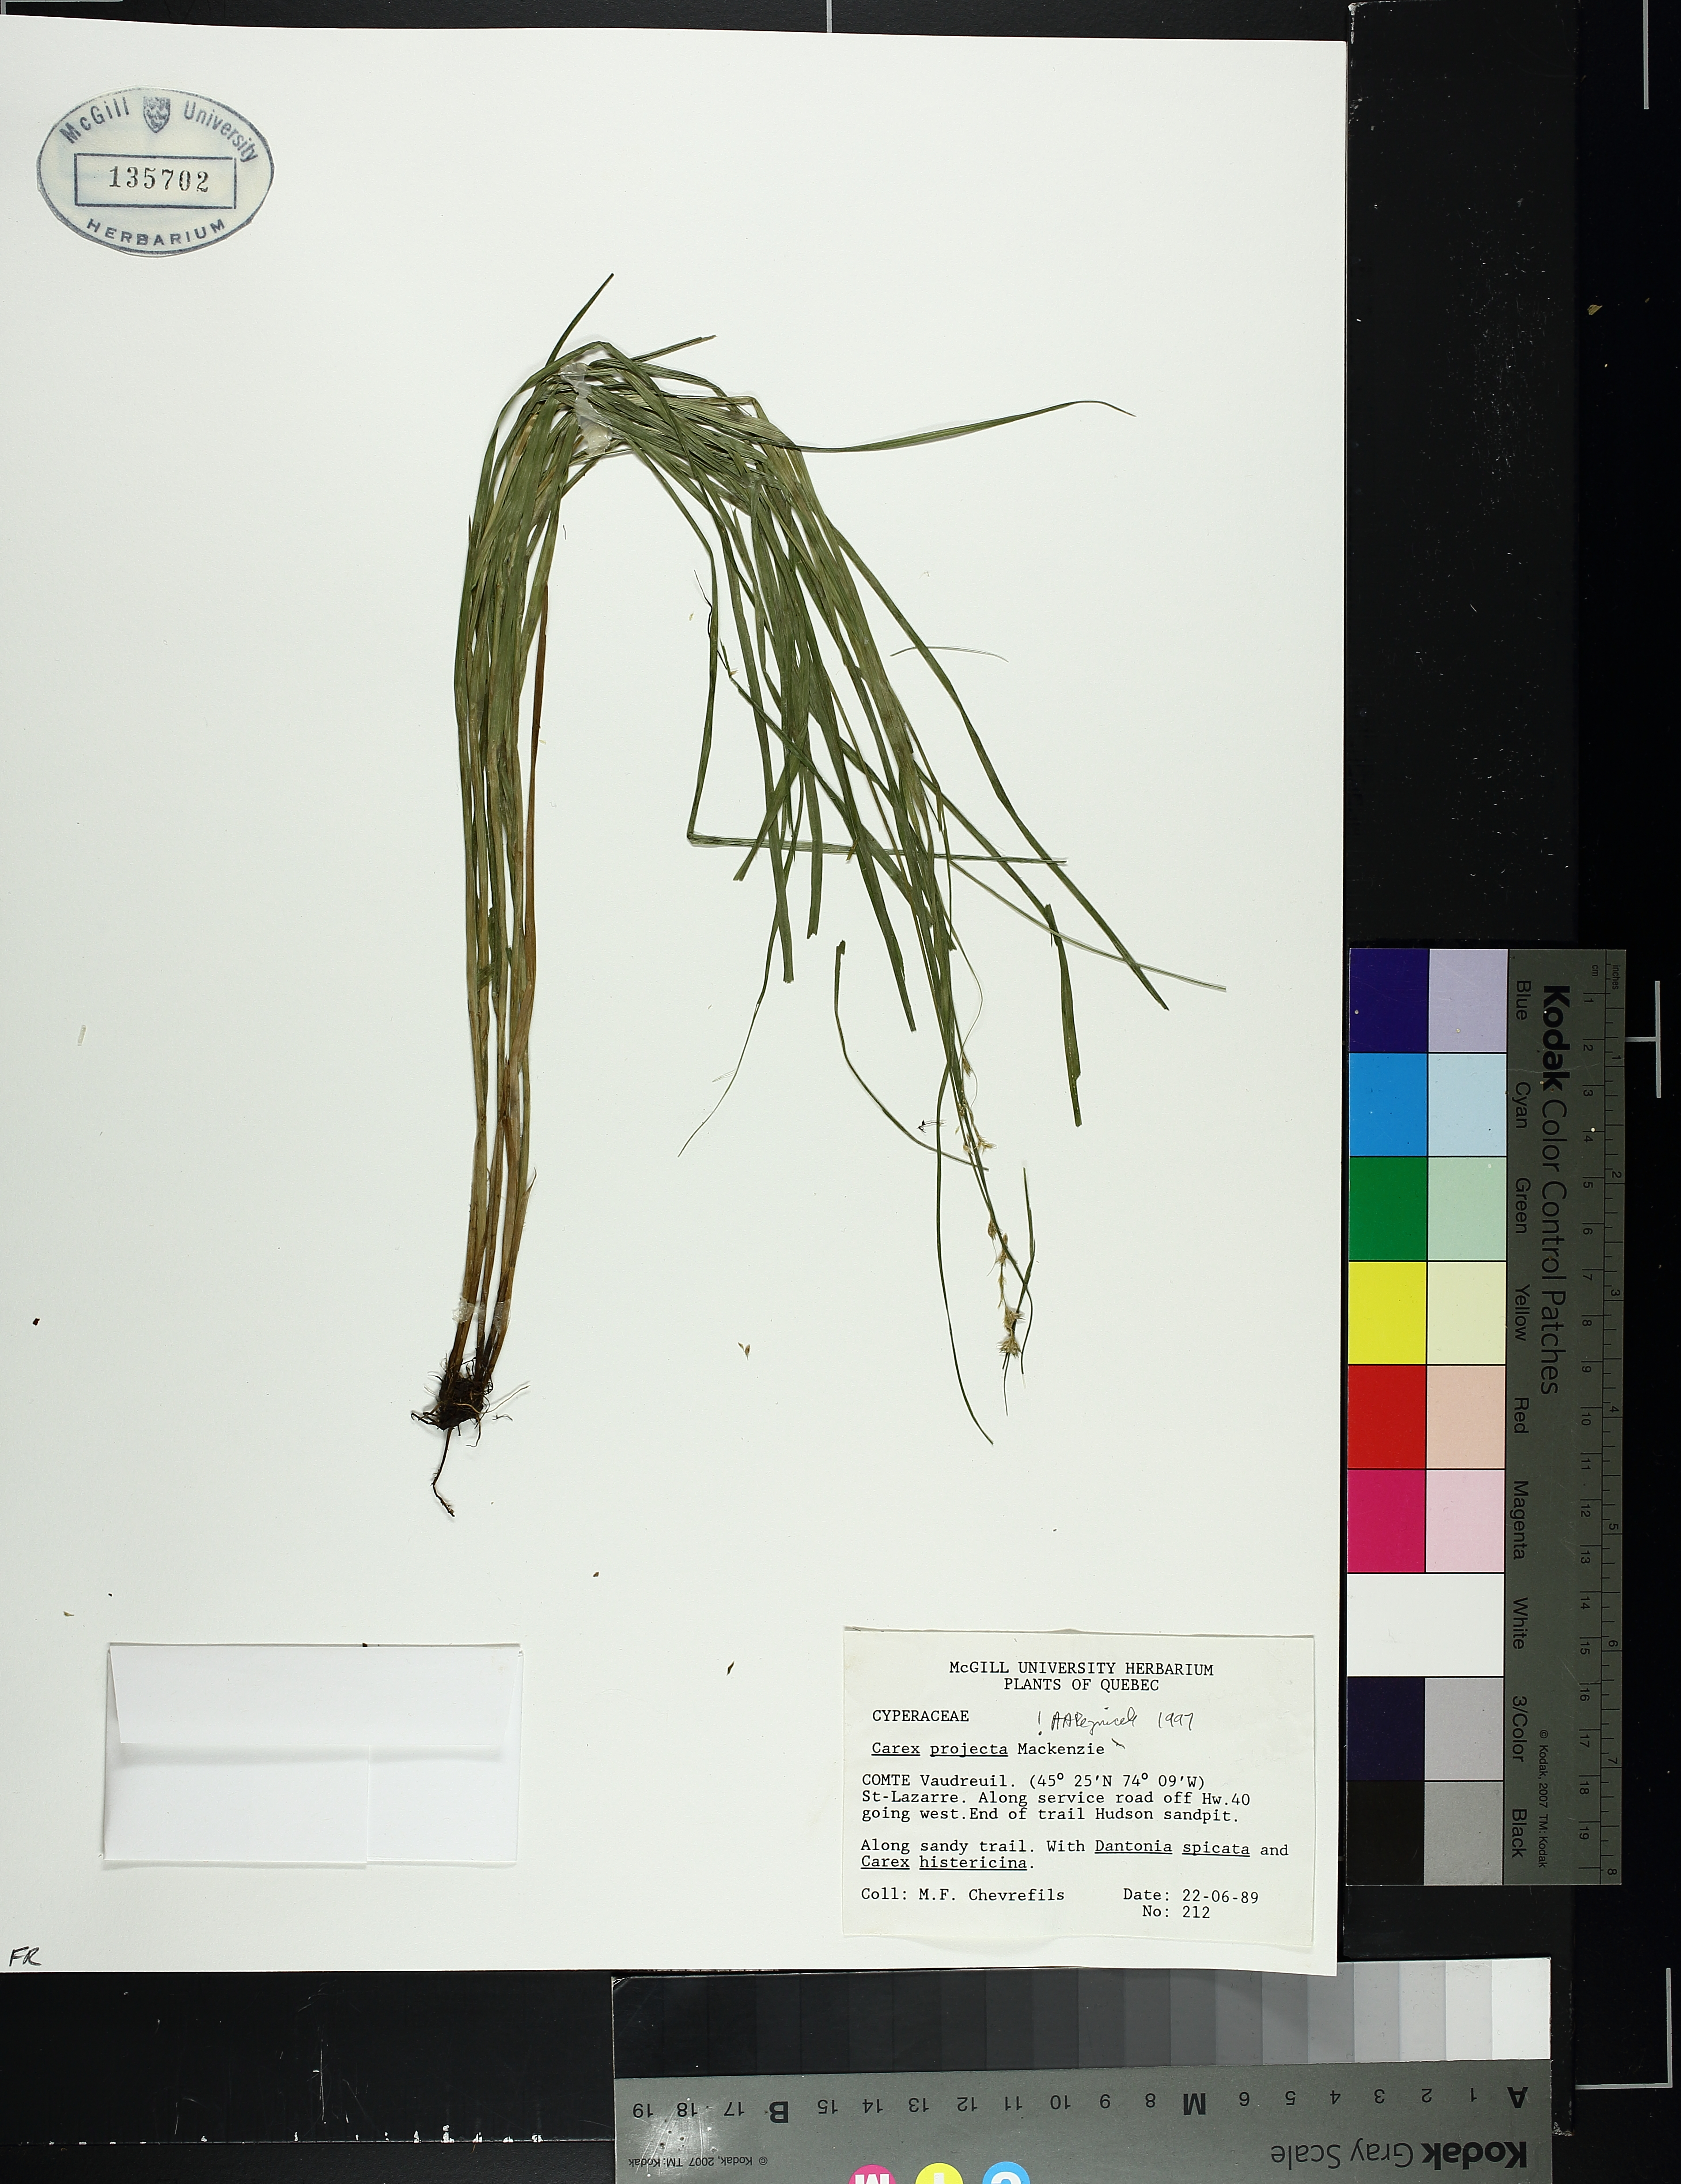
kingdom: Plantae
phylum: Tracheophyta
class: Liliopsida
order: Poales
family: Cyperaceae
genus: Carex
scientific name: Carex projecta
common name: Loose-headed oval sedge
